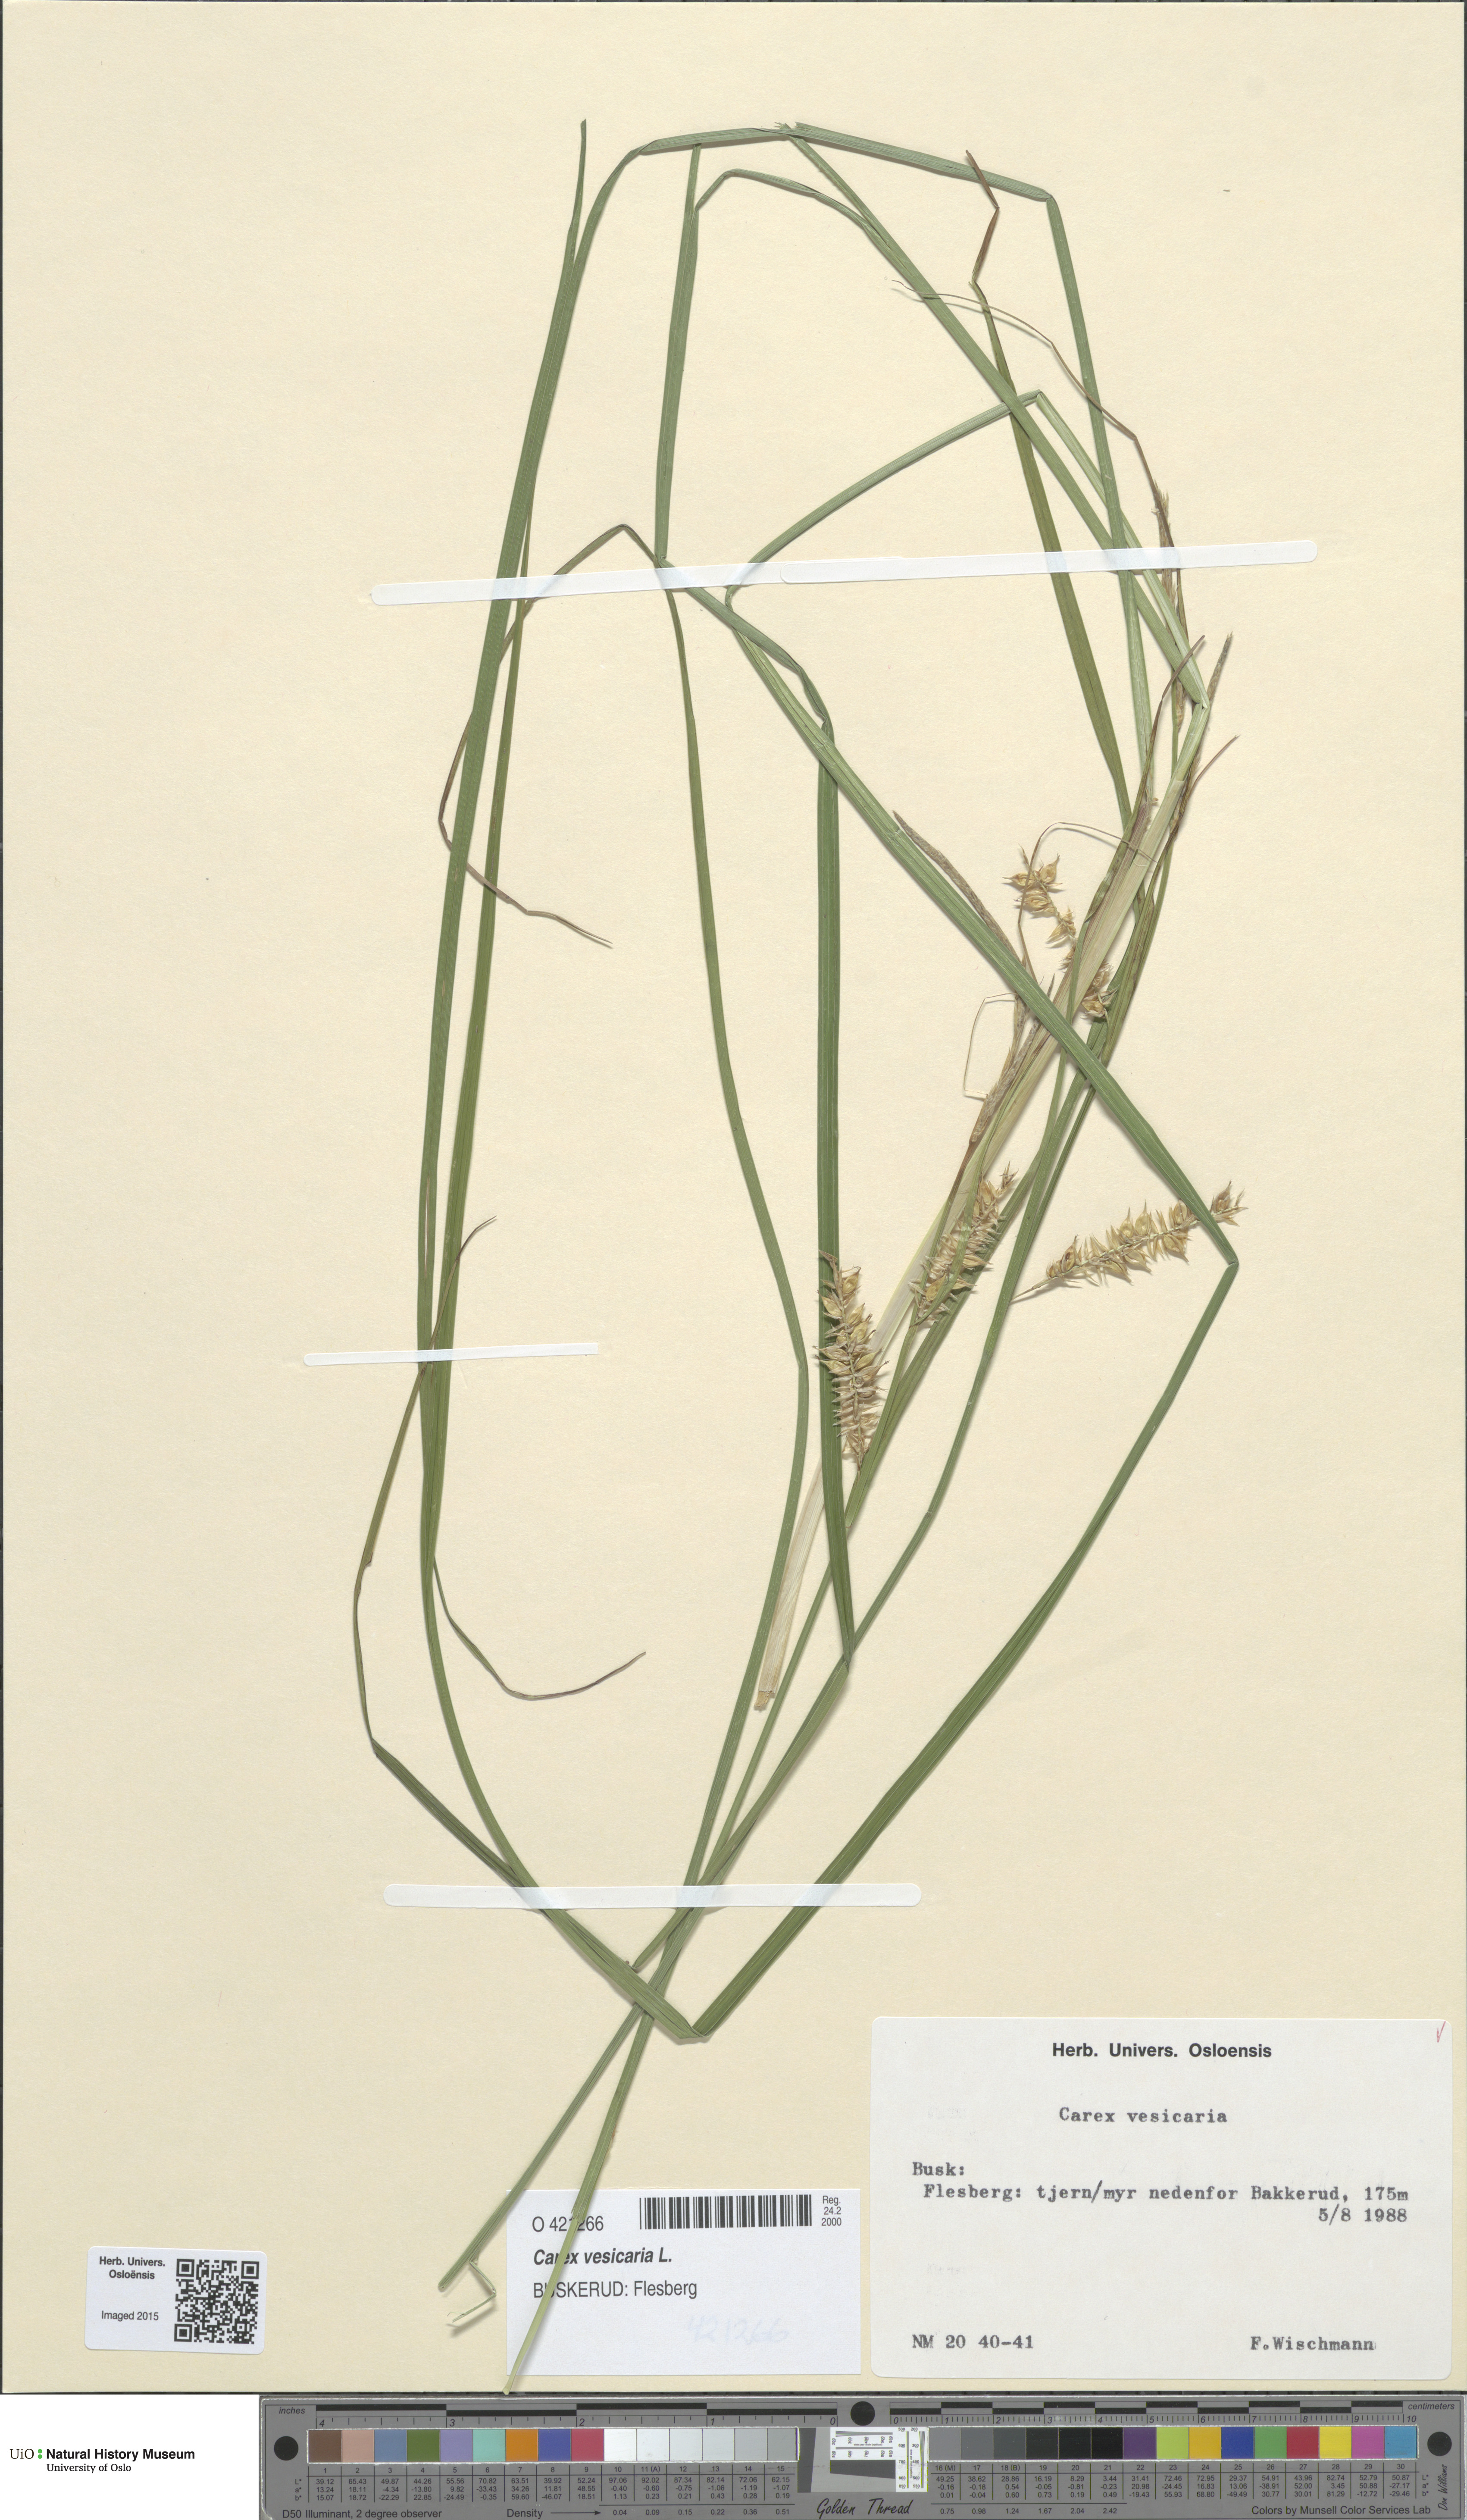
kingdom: Plantae
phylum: Tracheophyta
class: Liliopsida
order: Poales
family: Cyperaceae
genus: Carex
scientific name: Carex vesicaria
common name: Bladder-sedge
